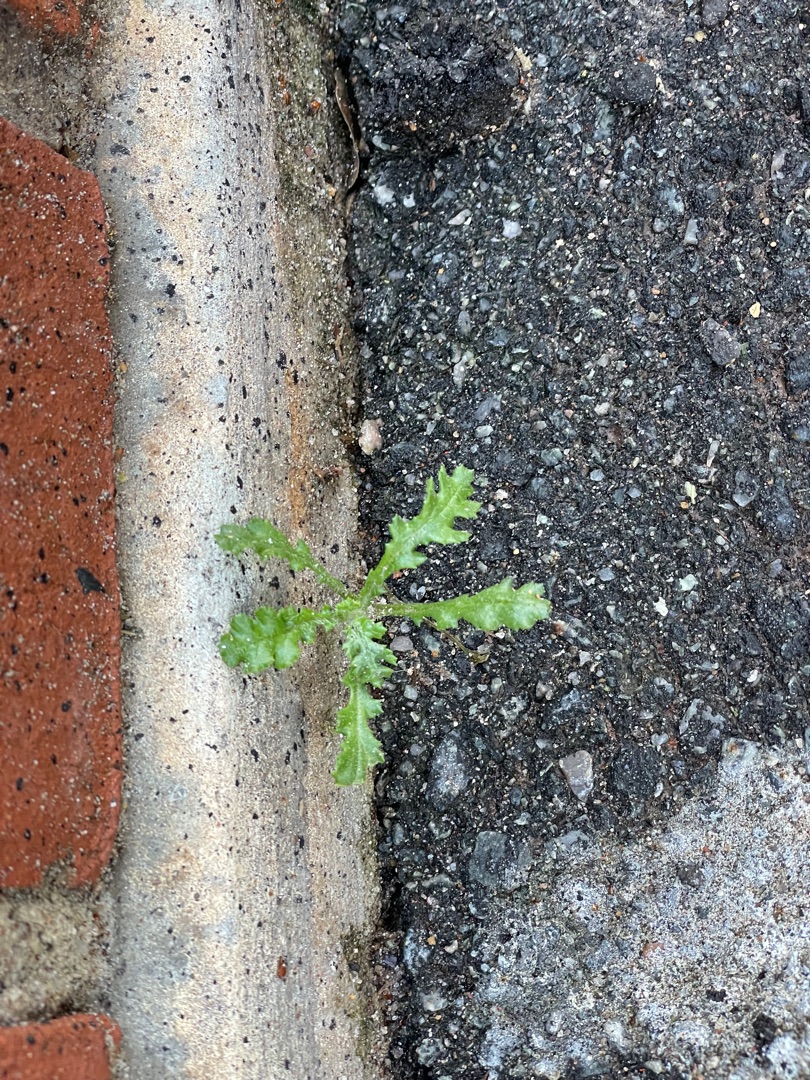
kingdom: Plantae
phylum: Tracheophyta
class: Magnoliopsida
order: Asterales
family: Asteraceae
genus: Senecio
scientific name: Senecio vulgaris
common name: Almindelig brandbæger
